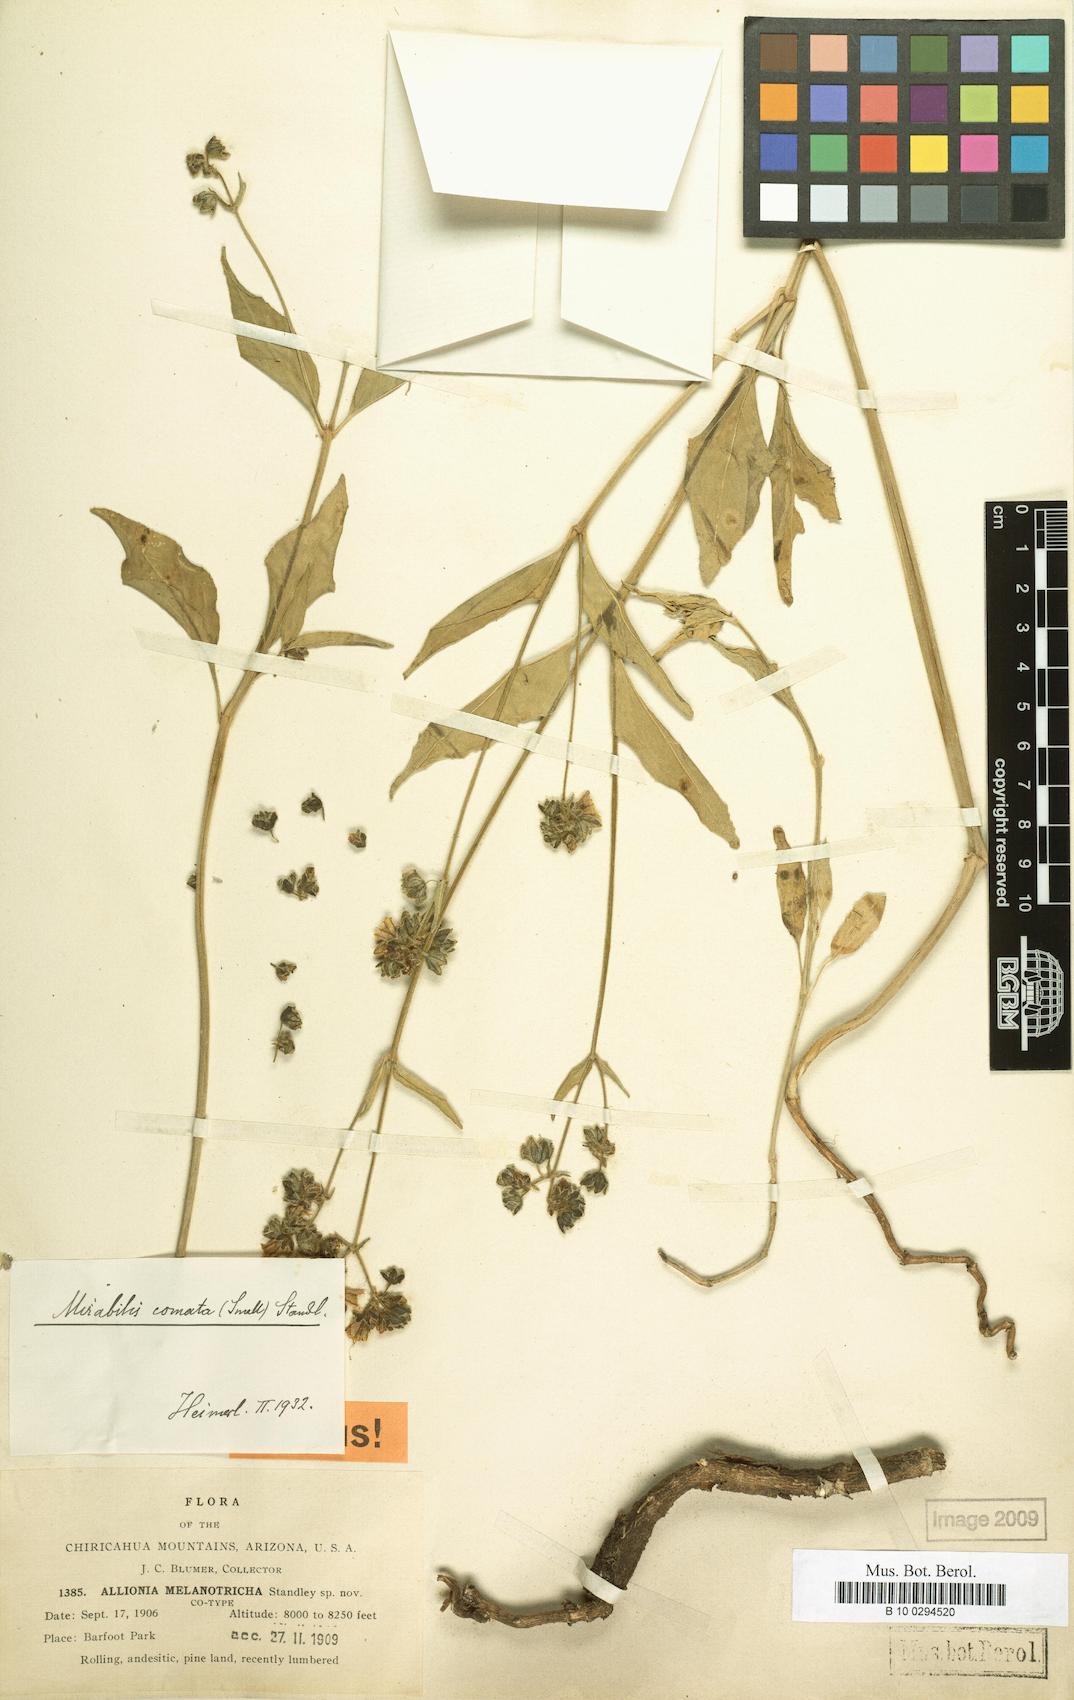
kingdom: Plantae
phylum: Tracheophyta
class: Magnoliopsida
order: Caryophyllales
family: Nyctaginaceae
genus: Mirabilis
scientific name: Mirabilis comata
